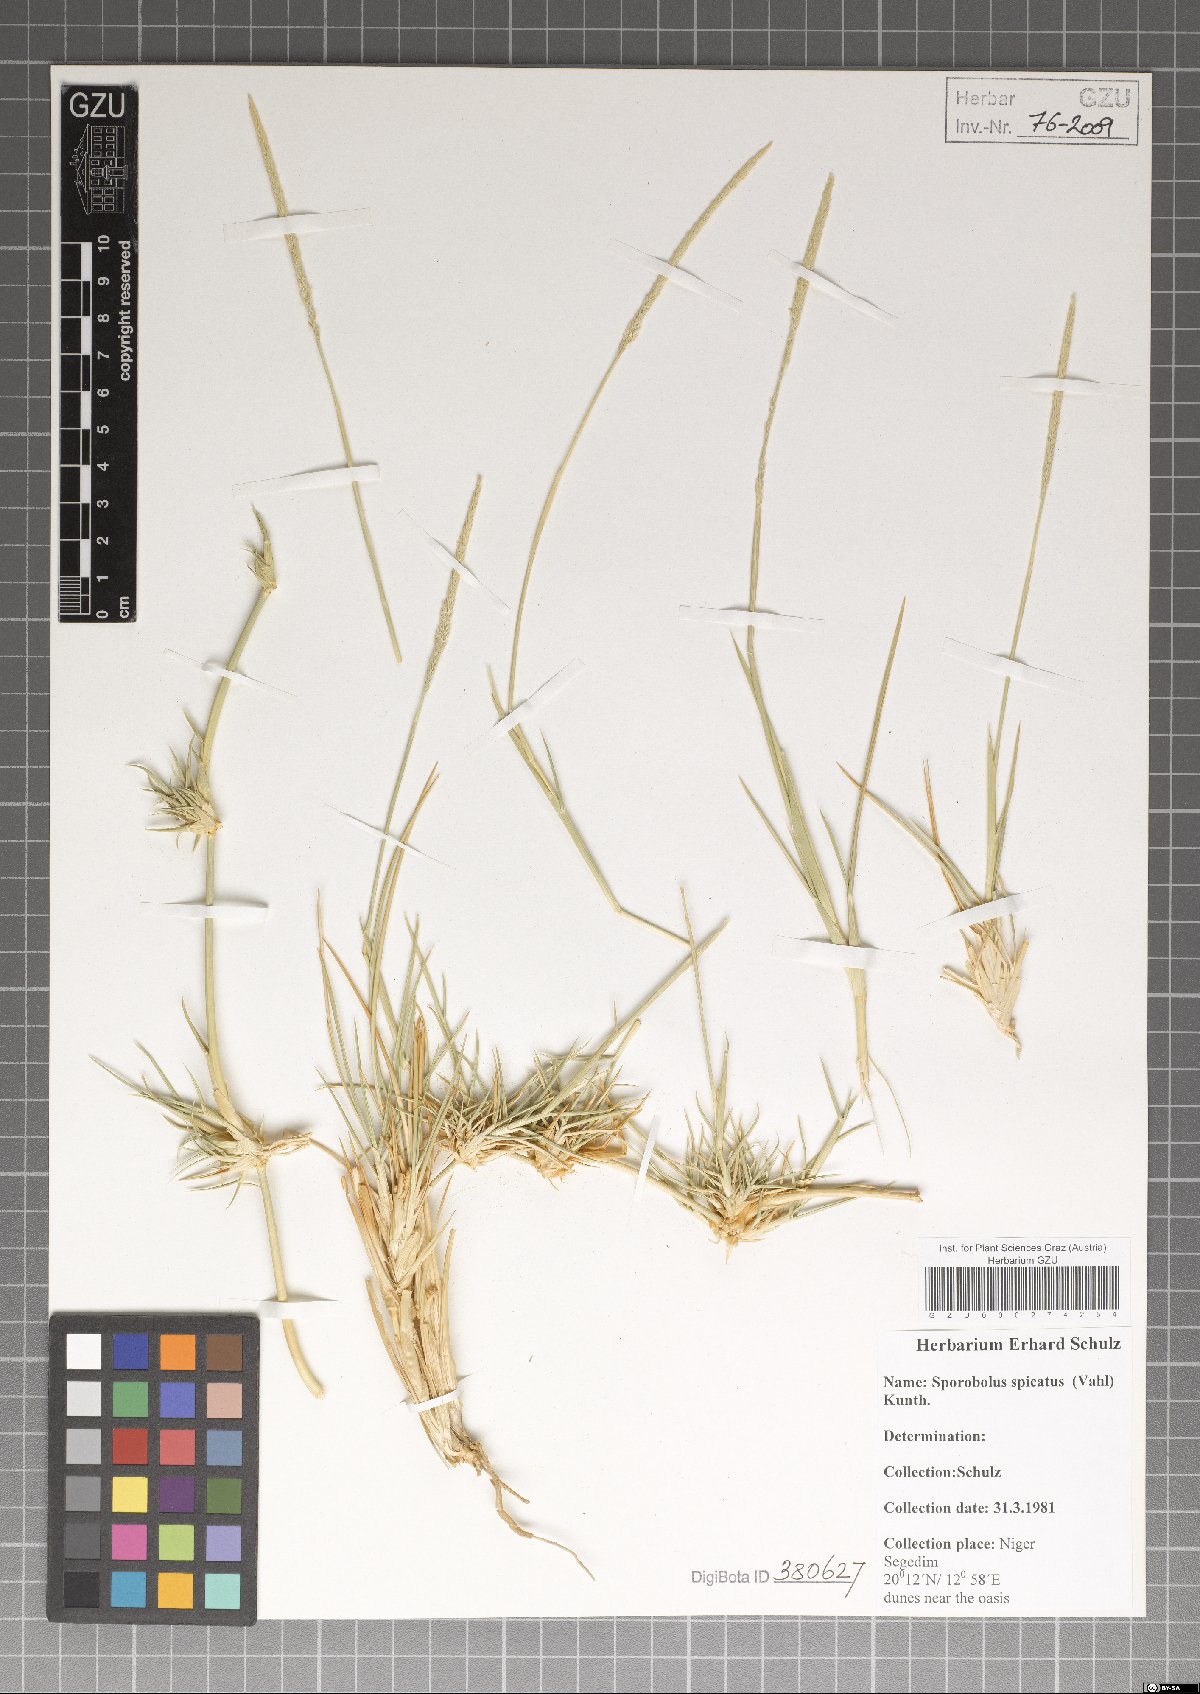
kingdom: Plantae
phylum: Tracheophyta
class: Liliopsida
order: Poales
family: Poaceae
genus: Sporobolus
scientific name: Sporobolus spicatus
